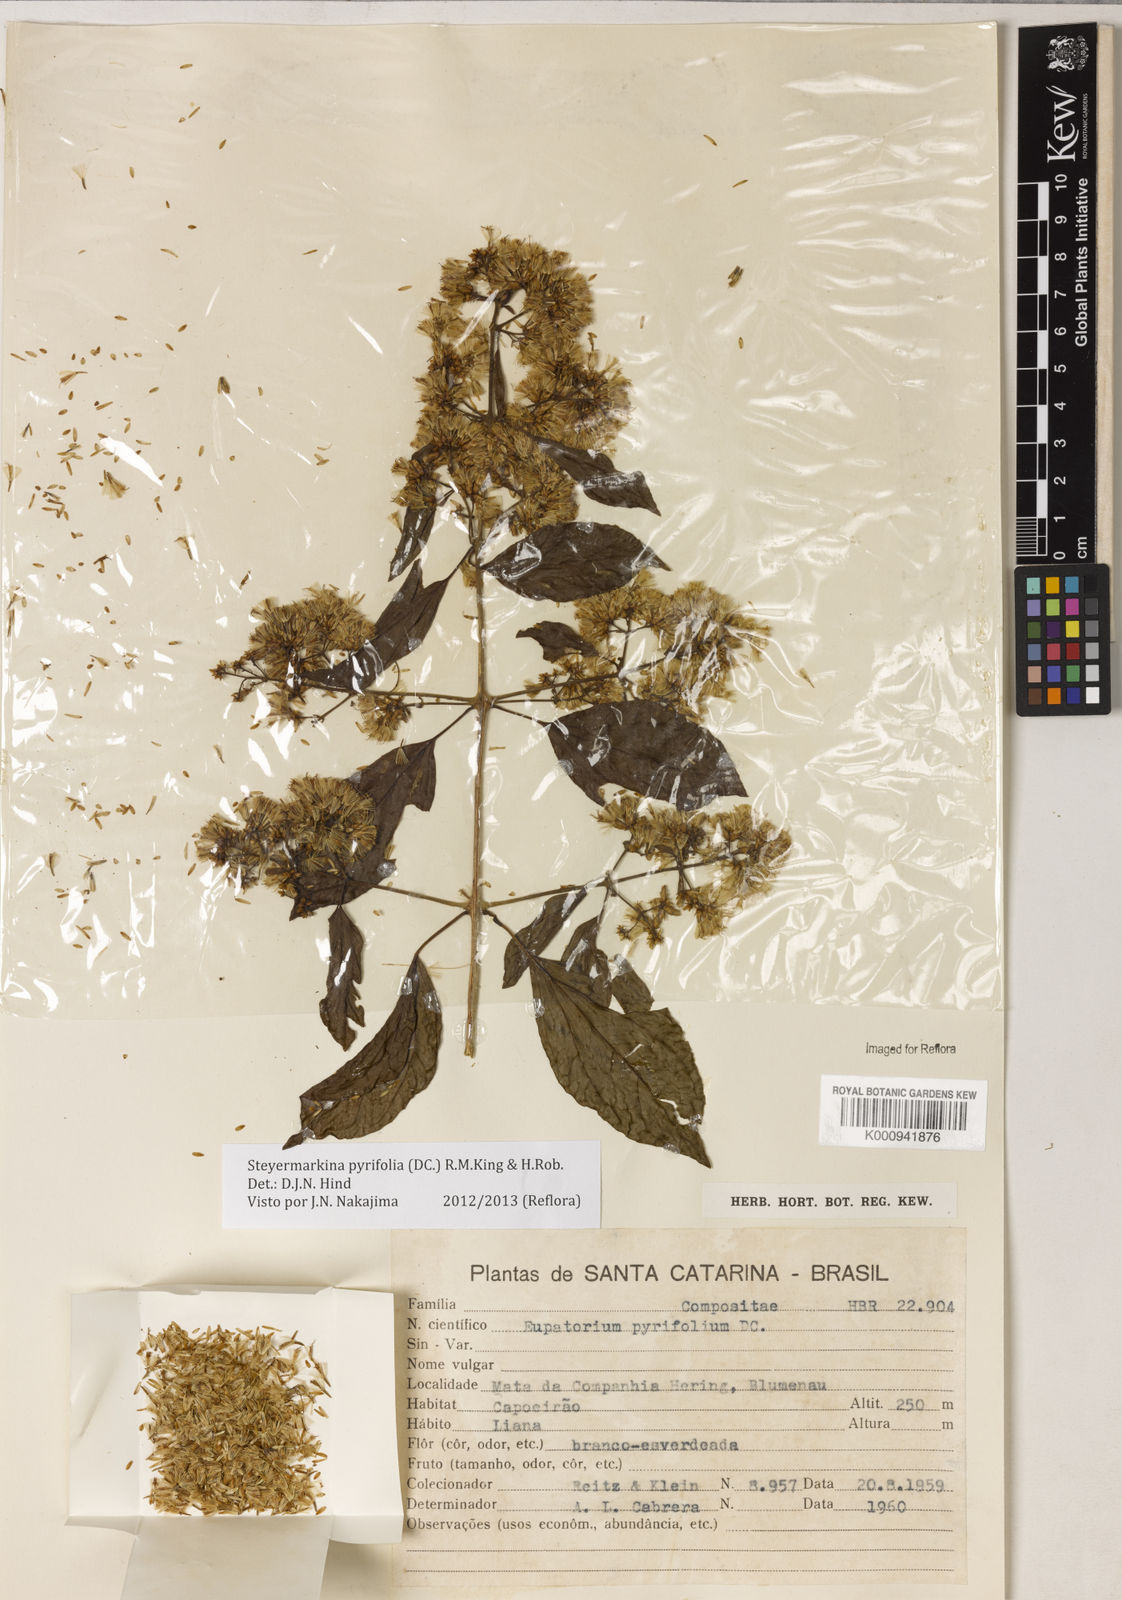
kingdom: Plantae
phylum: Tracheophyta
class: Magnoliopsida
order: Asterales
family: Asteraceae
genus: Steyermarkina
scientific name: Steyermarkina pyrifolia
